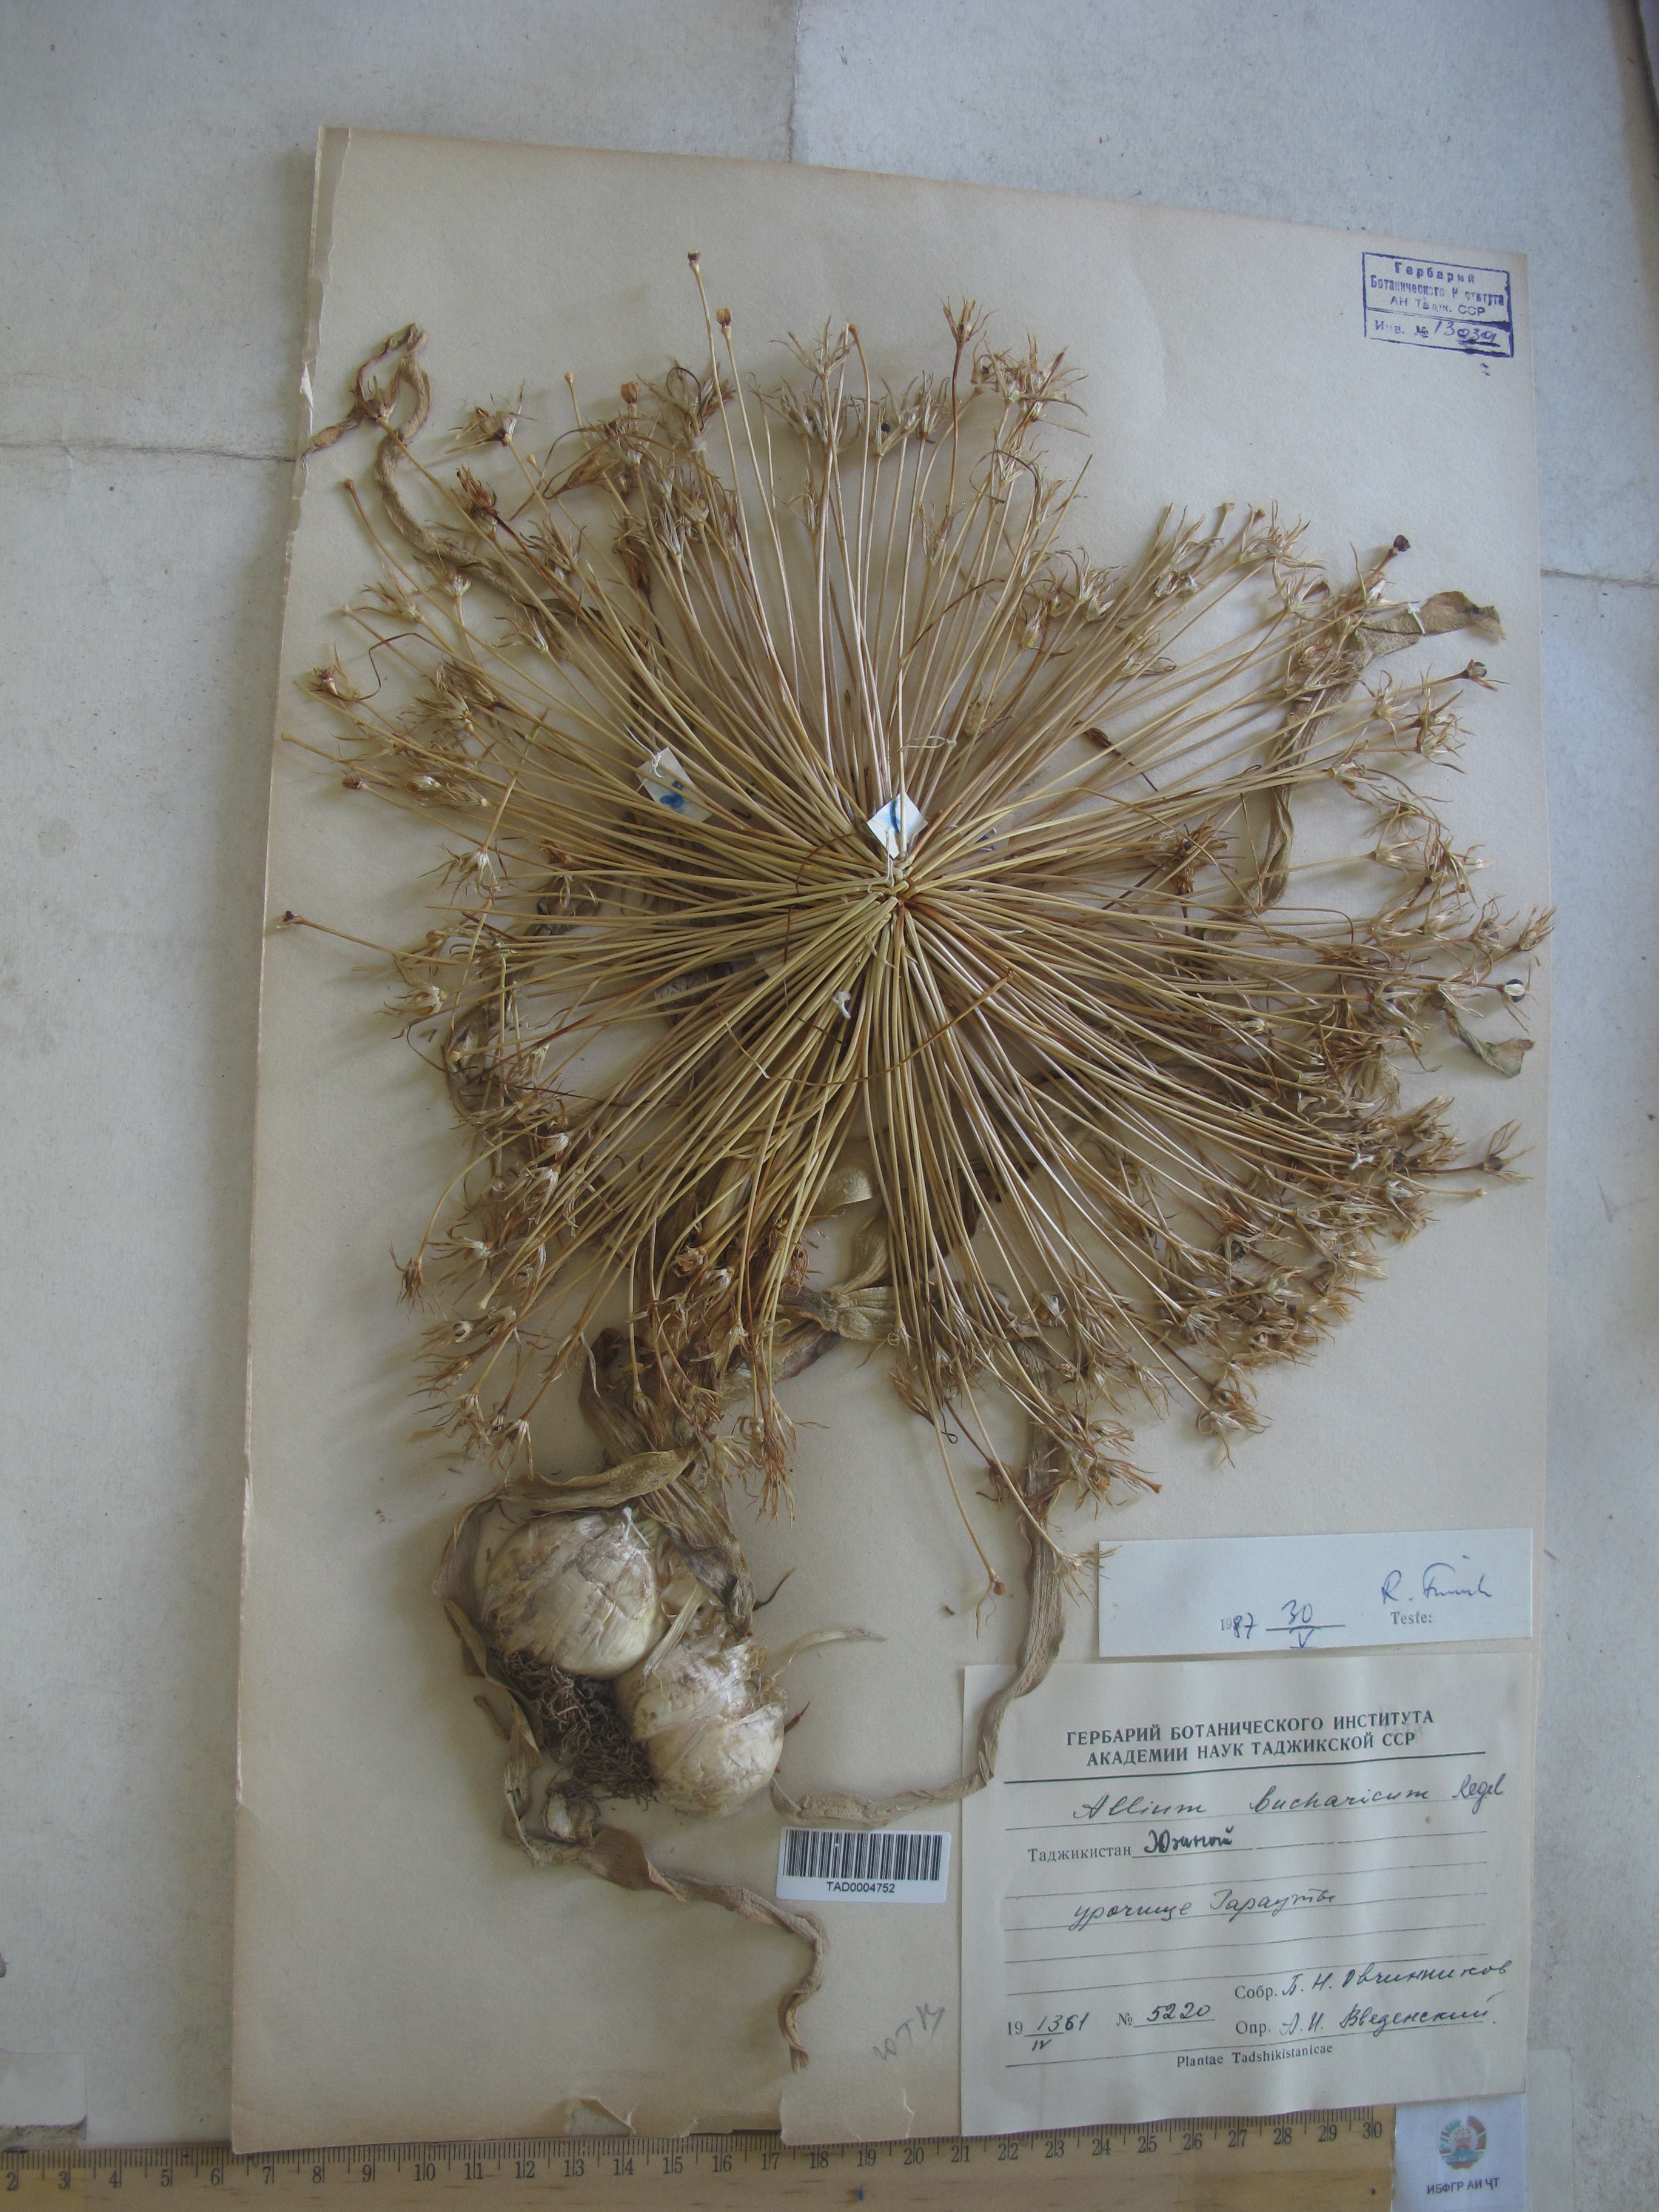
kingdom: Plantae
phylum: Tracheophyta
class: Liliopsida
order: Asparagales
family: Amaryllidaceae
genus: Allium
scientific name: Allium bucharicum
